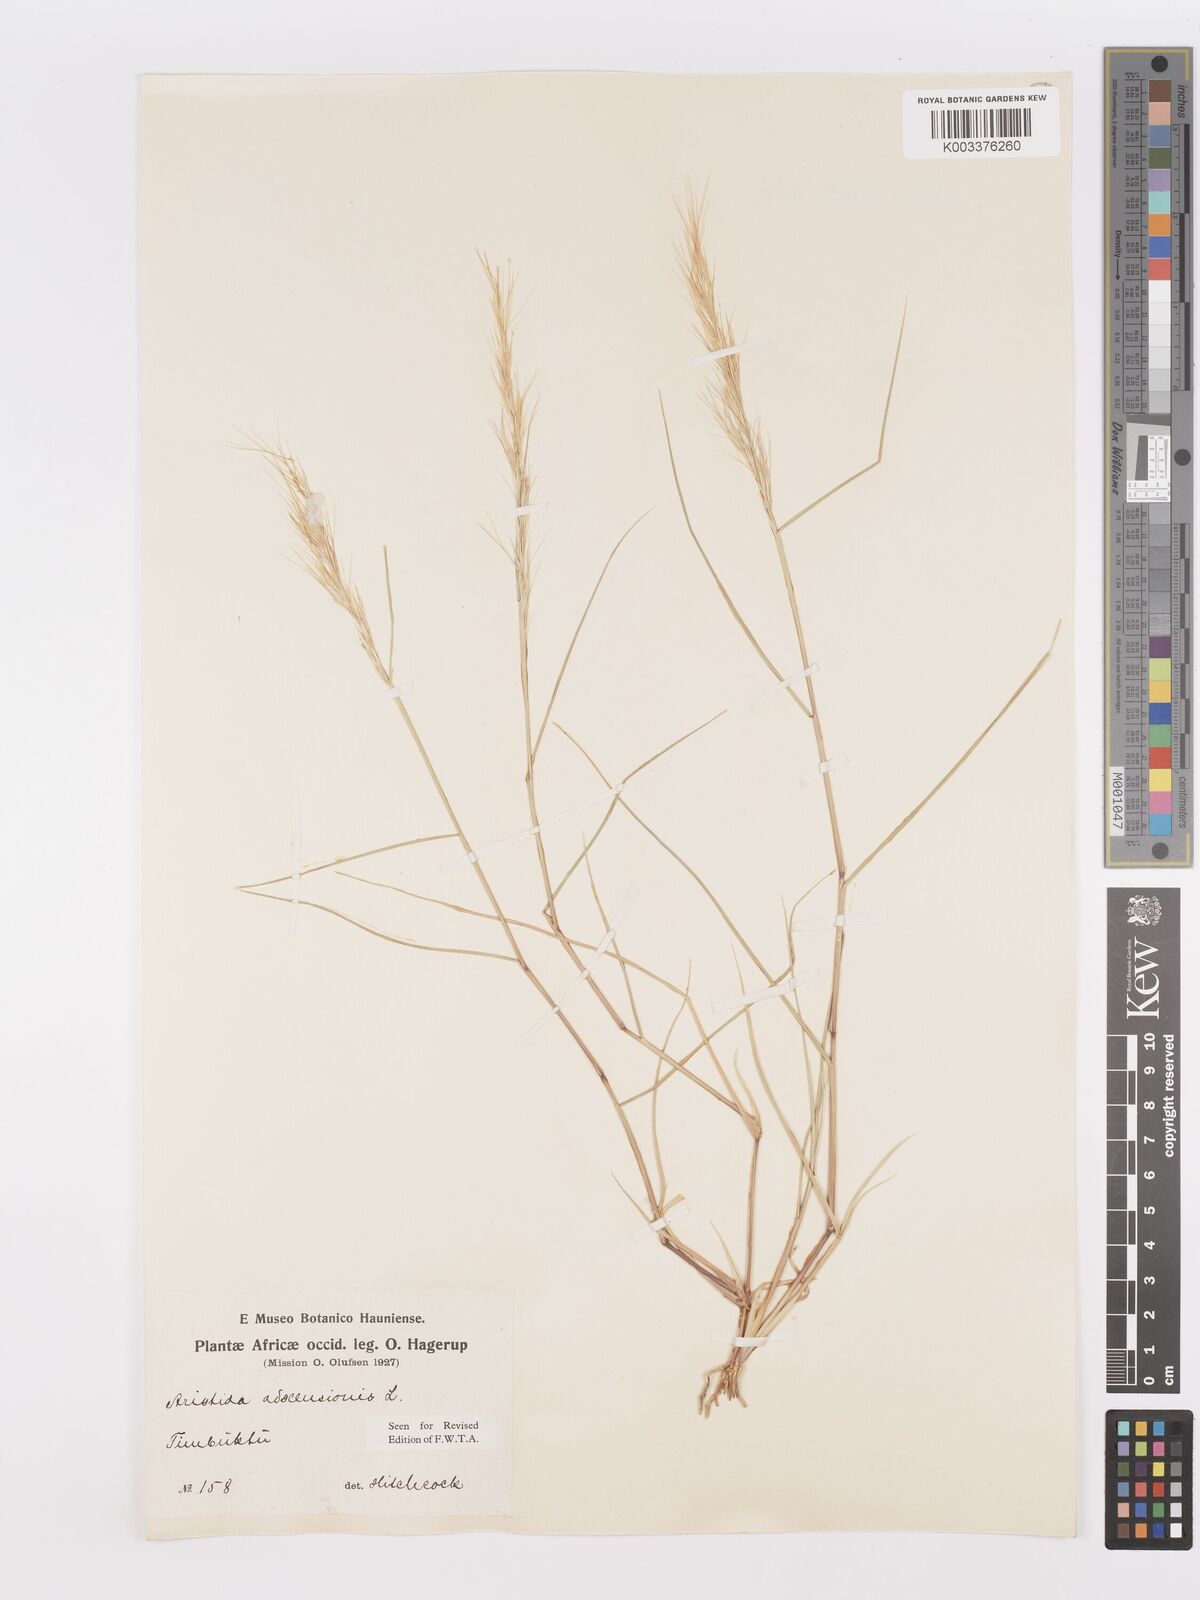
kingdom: Plantae
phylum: Tracheophyta
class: Liliopsida
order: Poales
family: Poaceae
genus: Aristida
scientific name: Aristida adscensionis
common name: Sixweeks threeawn
